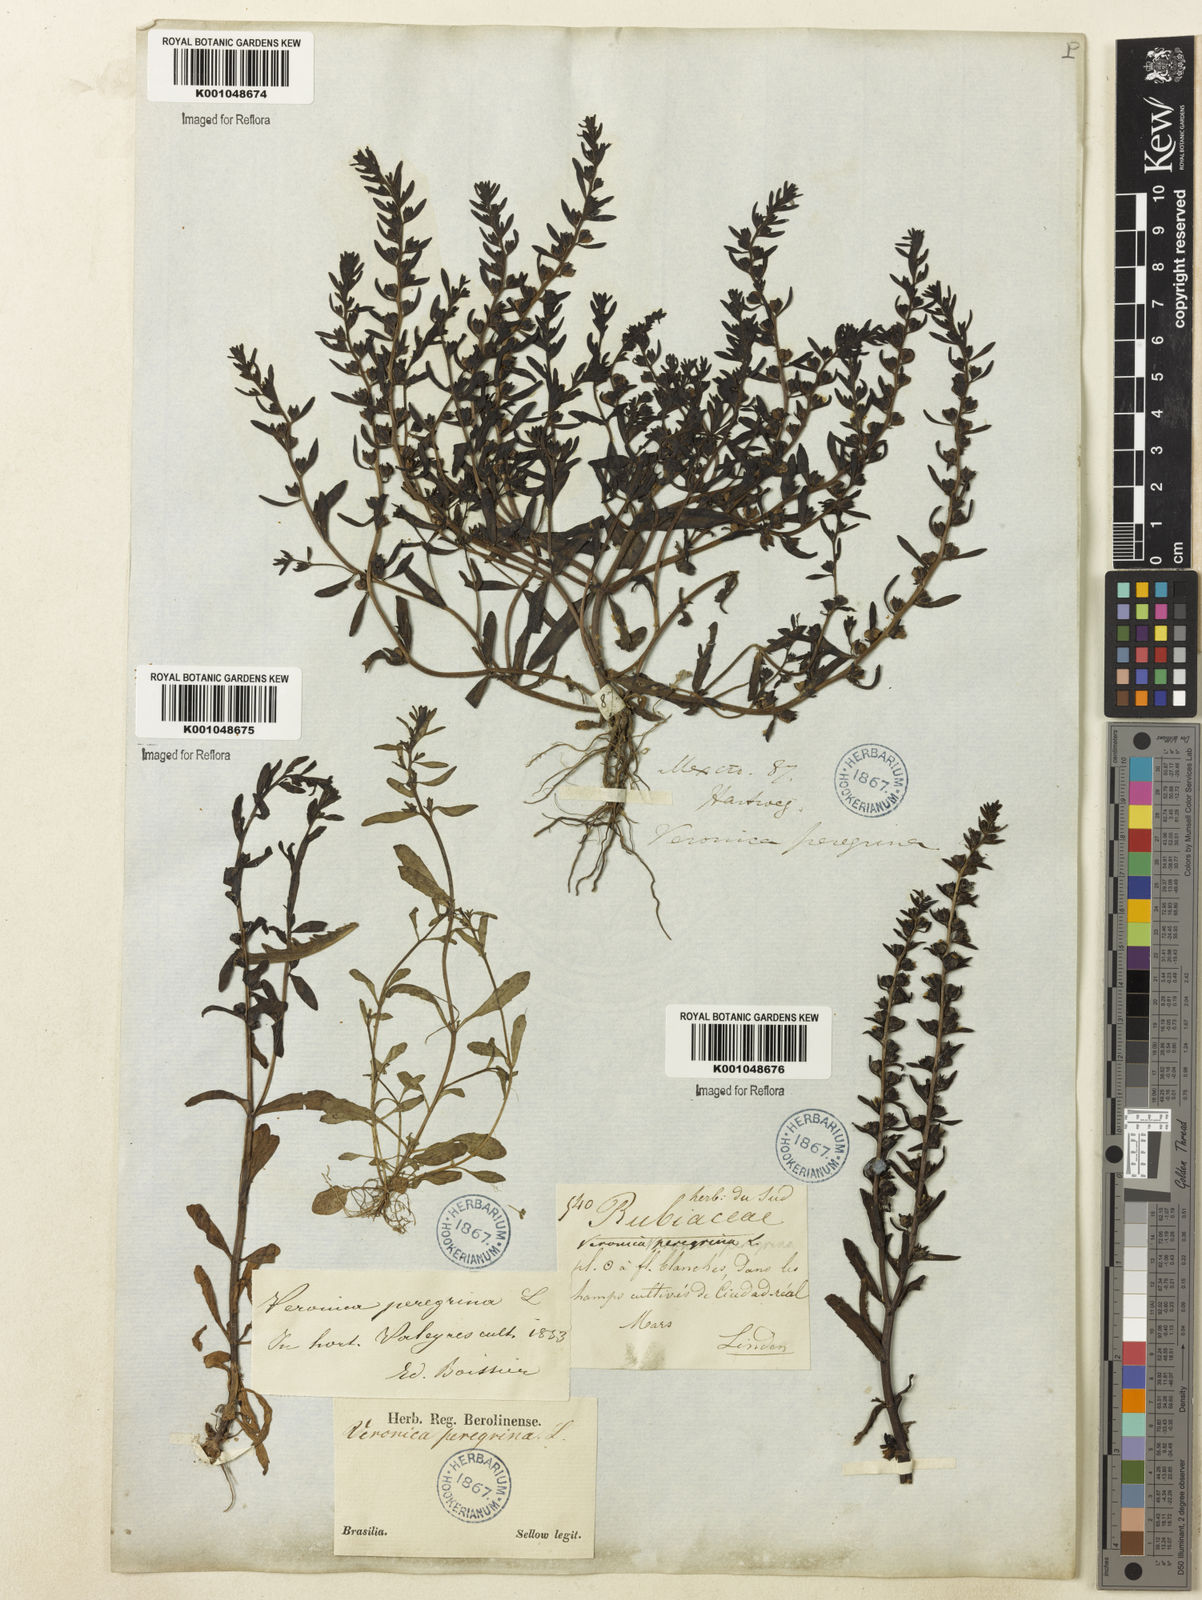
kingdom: Plantae
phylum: Tracheophyta
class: Magnoliopsida
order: Lamiales
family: Plantaginaceae
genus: Veronica
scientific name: Veronica peregrina
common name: Neckweed
